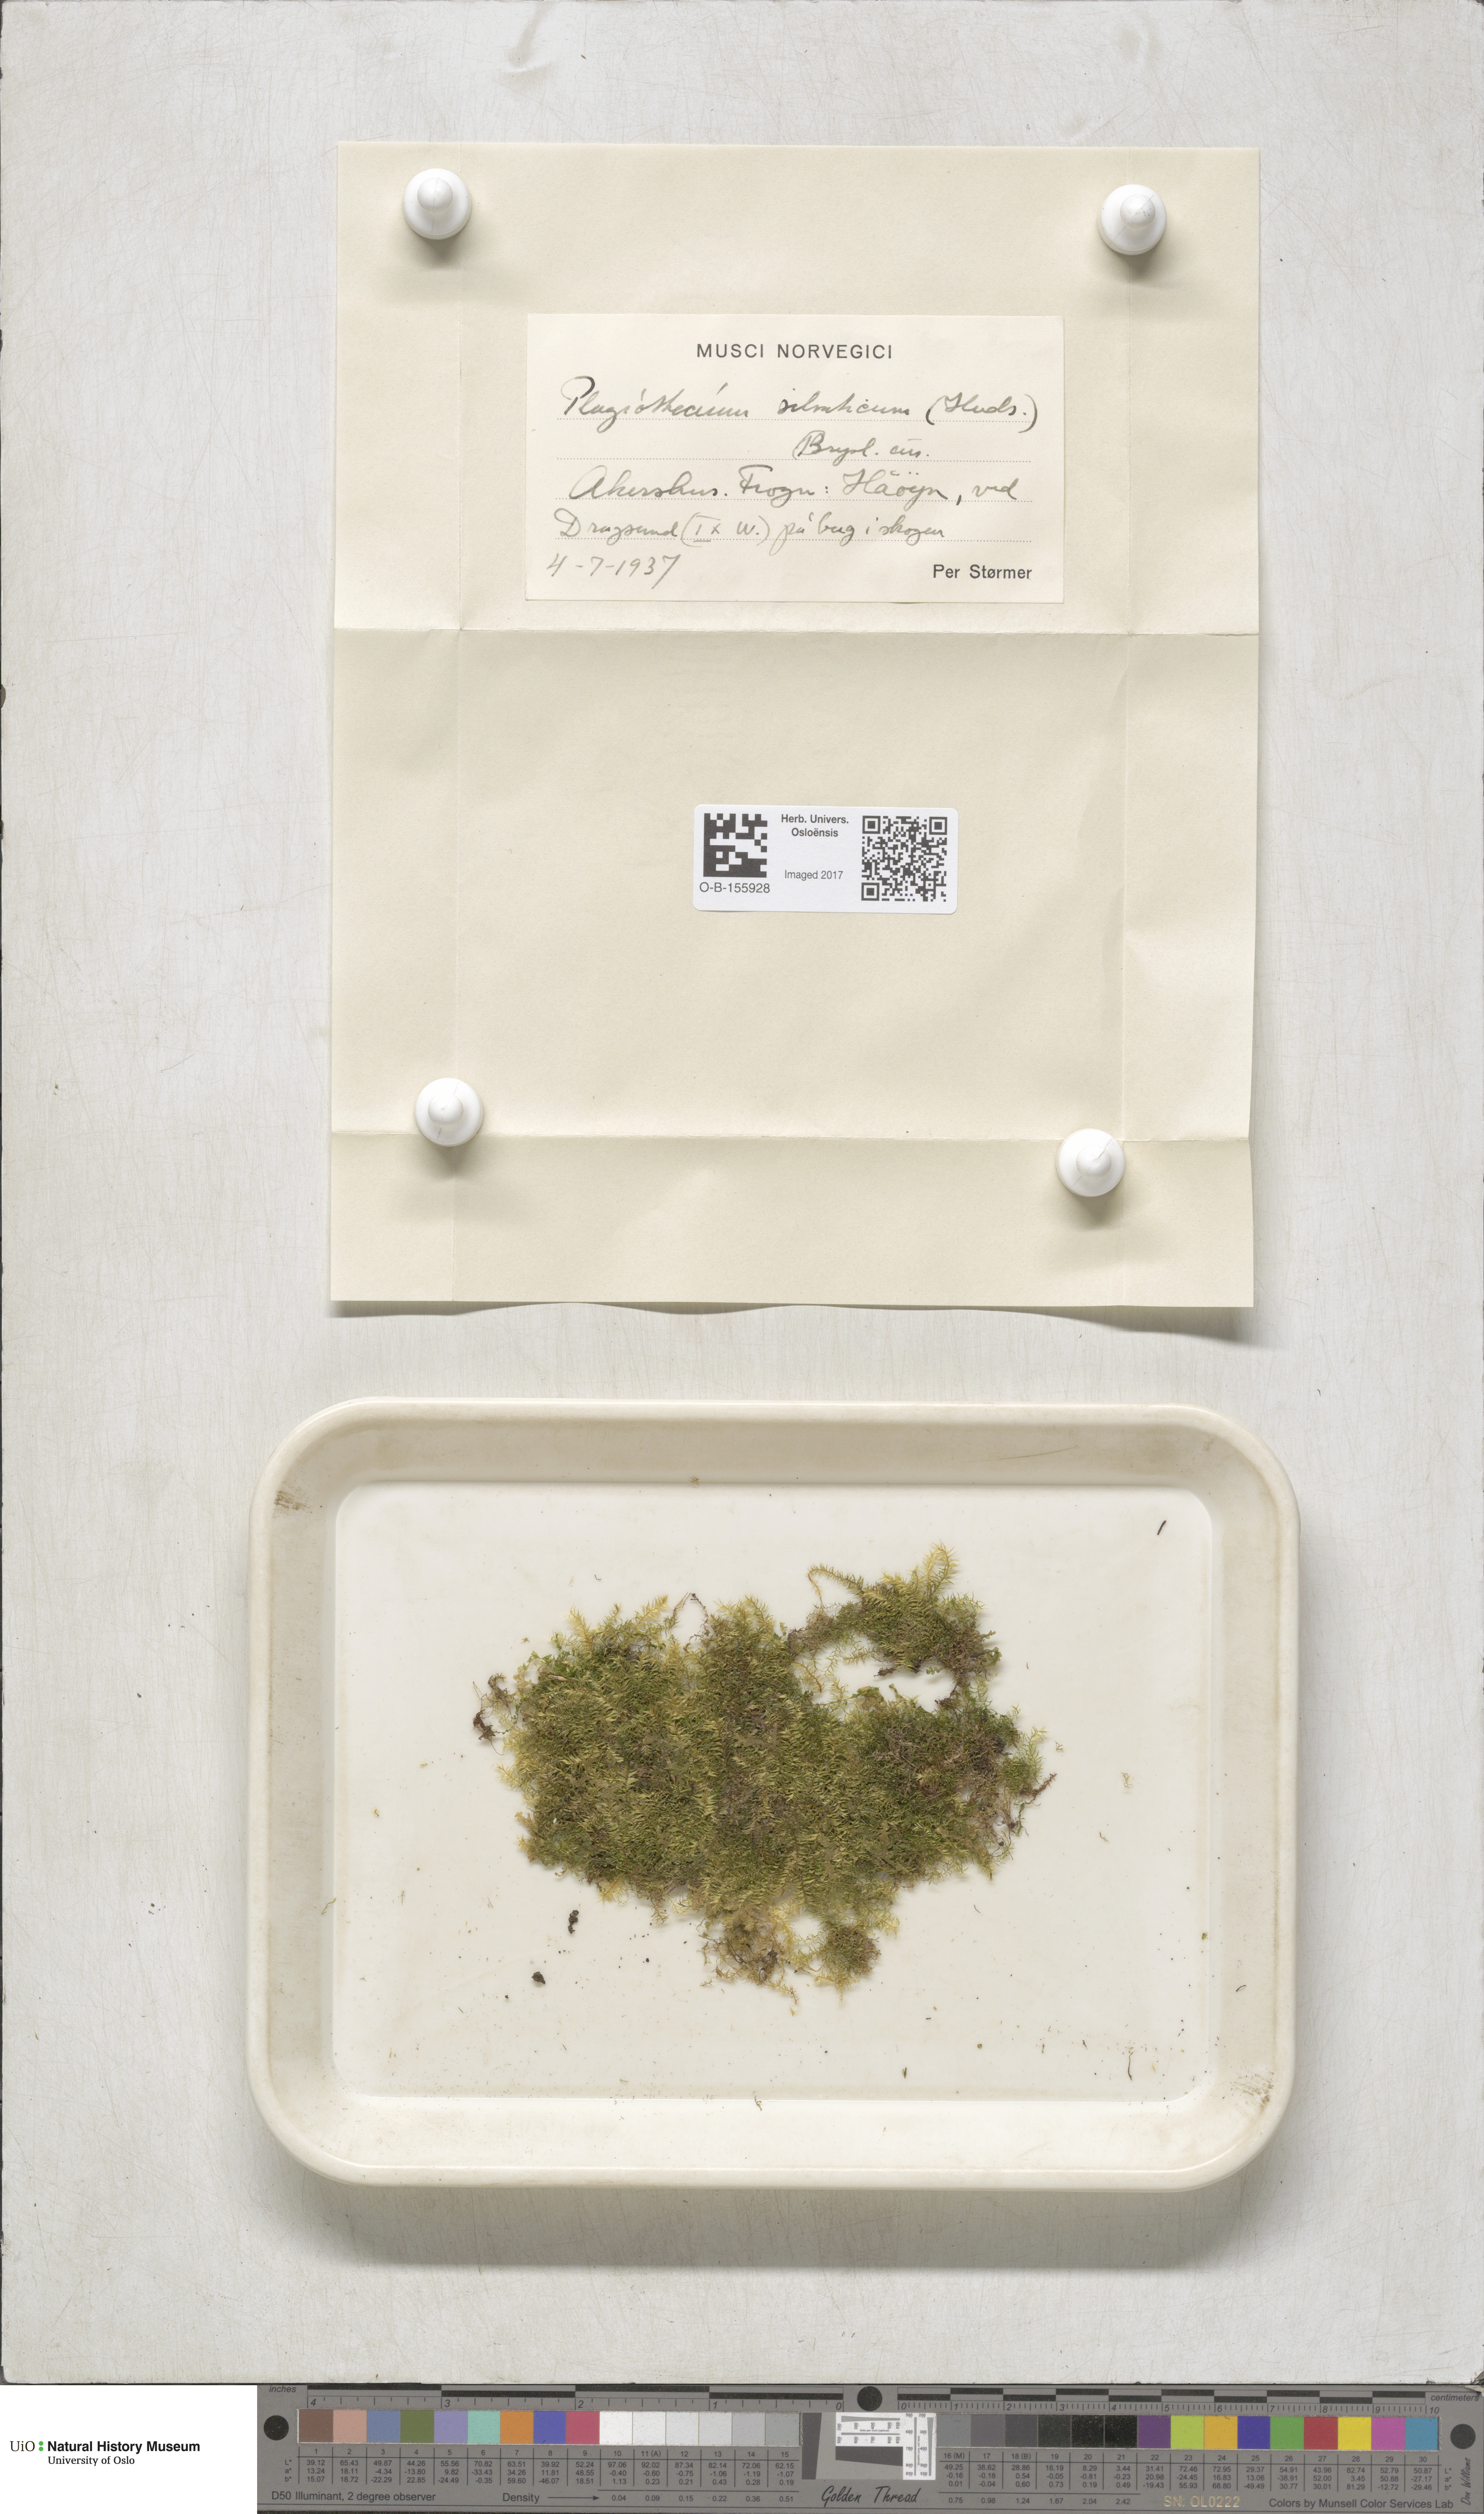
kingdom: Plantae
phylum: Bryophyta
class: Bryopsida
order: Hypnales
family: Plagiotheciaceae
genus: Plagiothecium
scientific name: Plagiothecium nemorale
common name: Woodsy silk-moss
